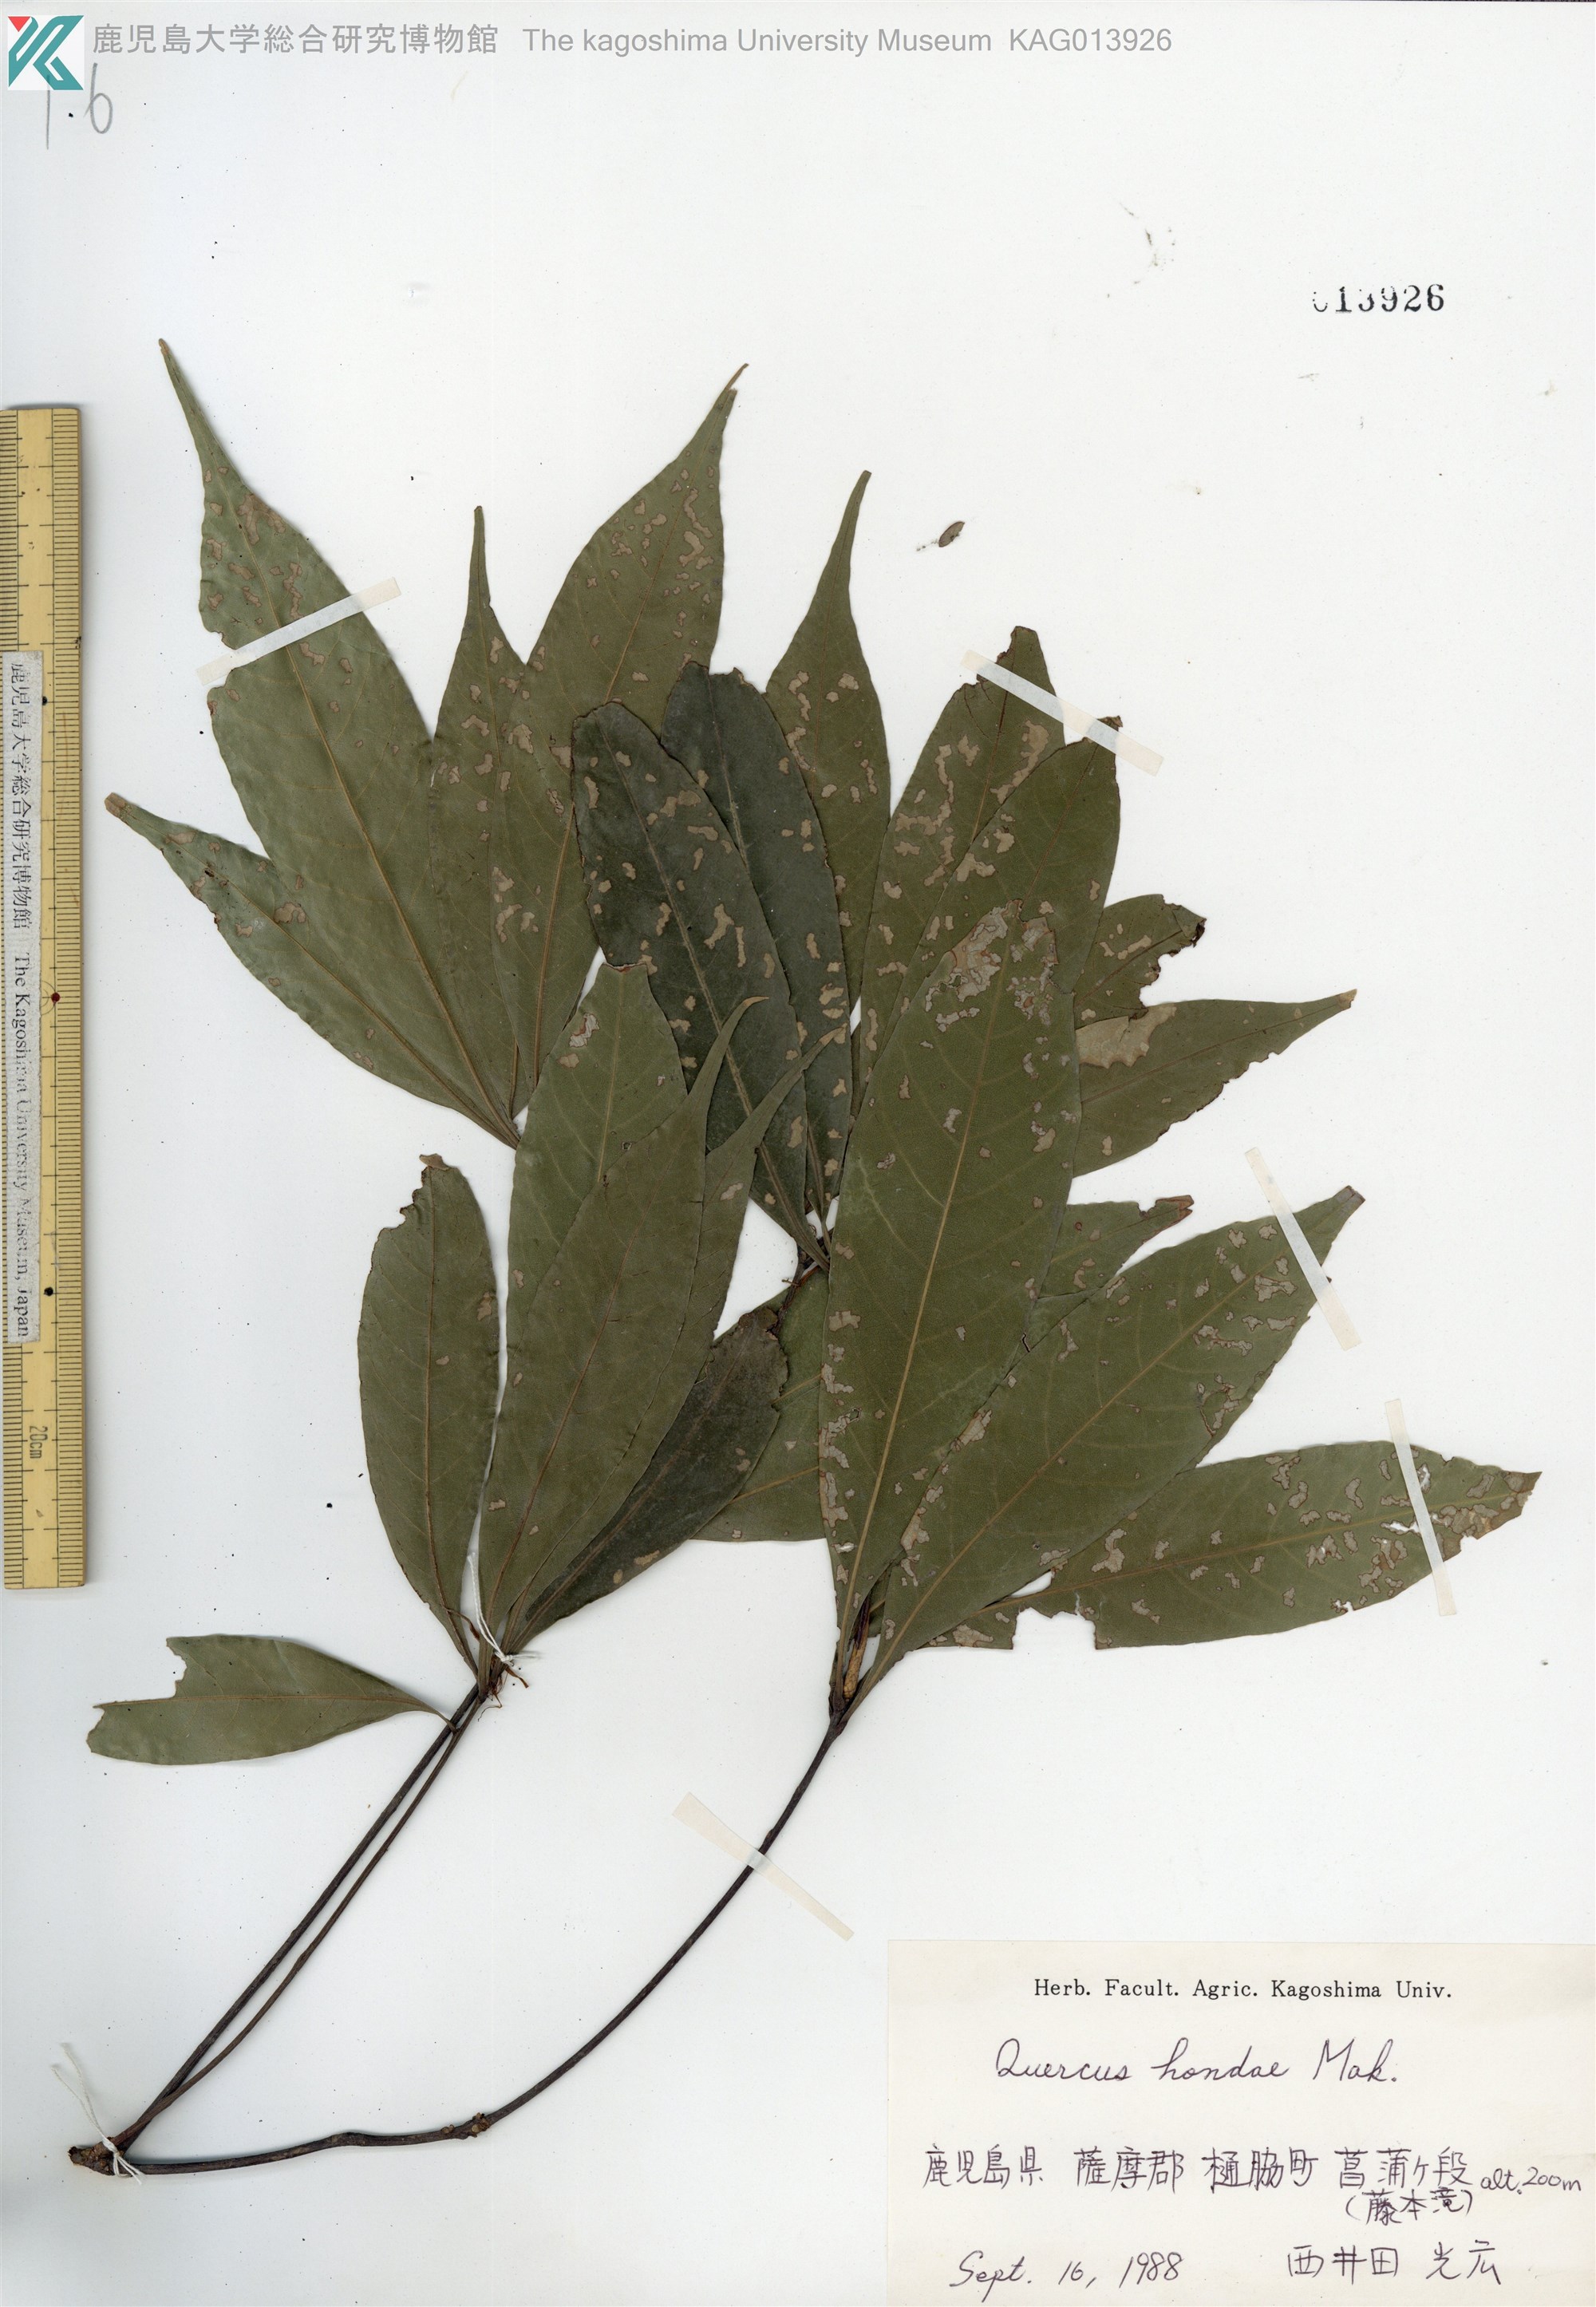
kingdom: Plantae
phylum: Tracheophyta
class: Magnoliopsida
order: Fagales
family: Fagaceae
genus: Quercus
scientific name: Quercus hondae
